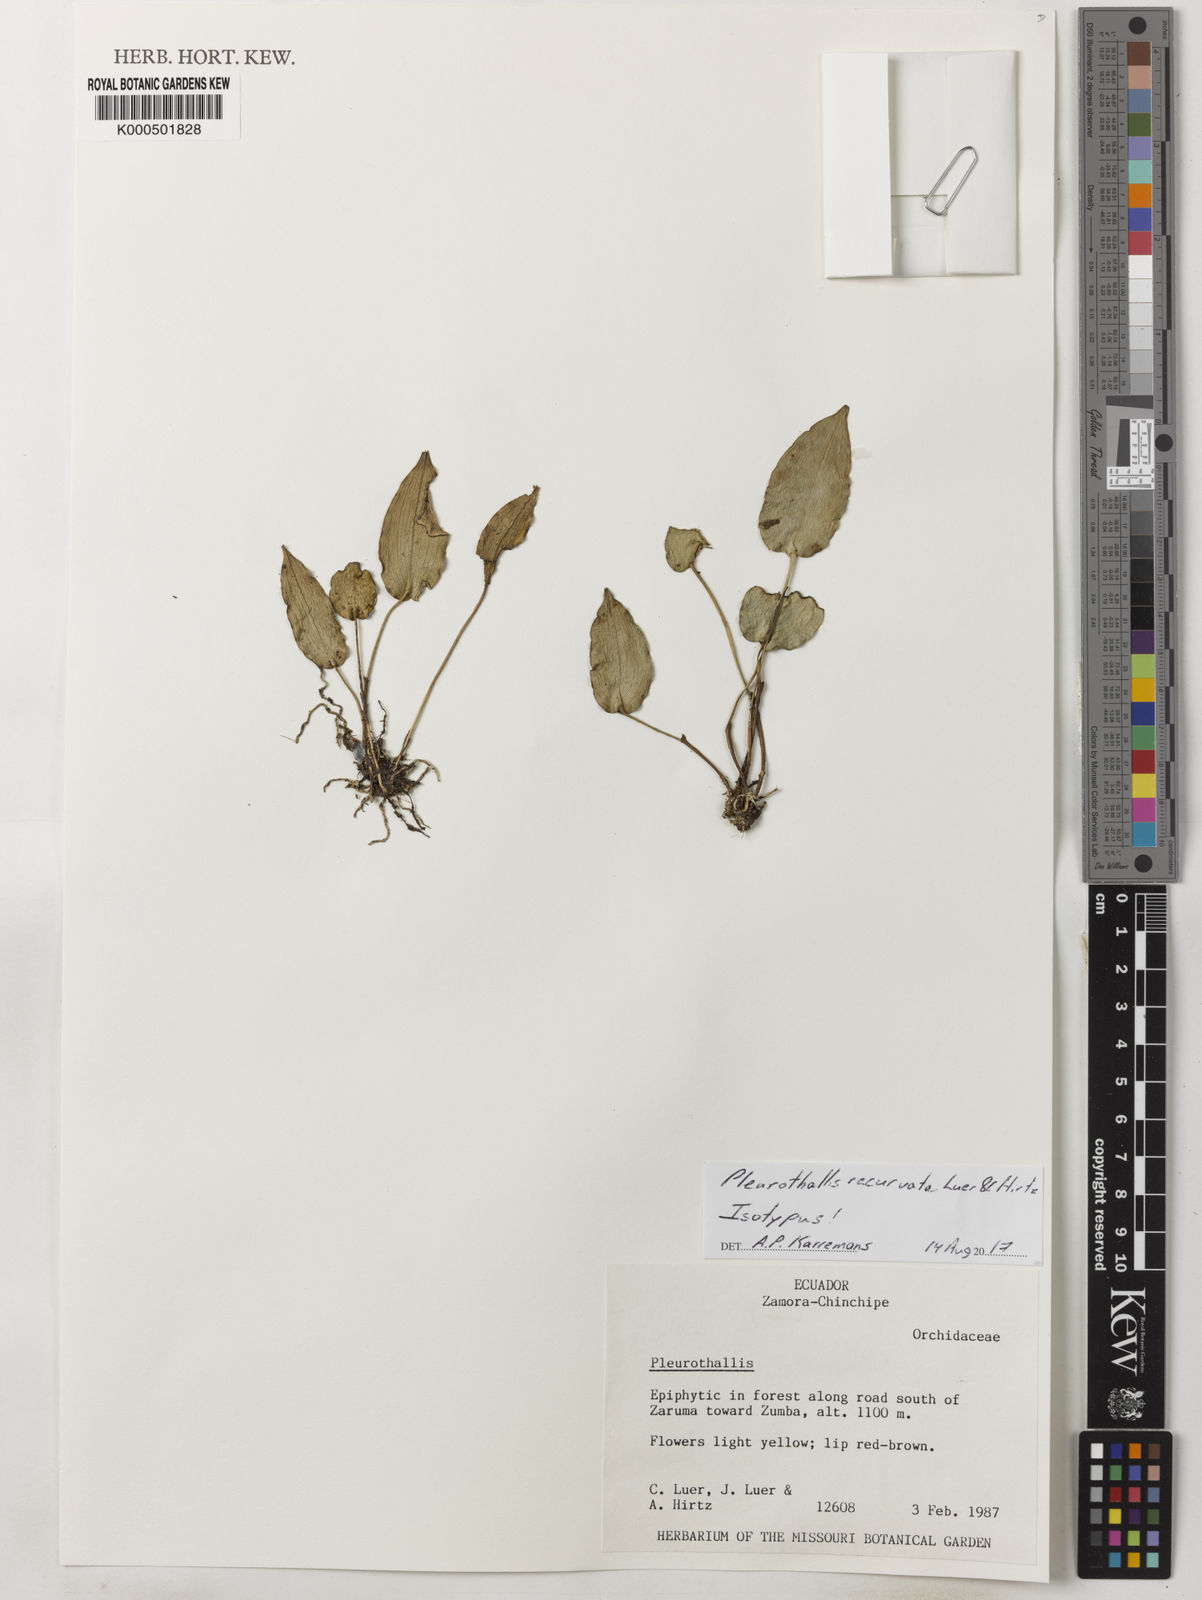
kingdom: Plantae
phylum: Tracheophyta
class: Liliopsida
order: Asparagales
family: Orchidaceae
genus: Pleurothallis
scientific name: Pleurothallis recurvata
